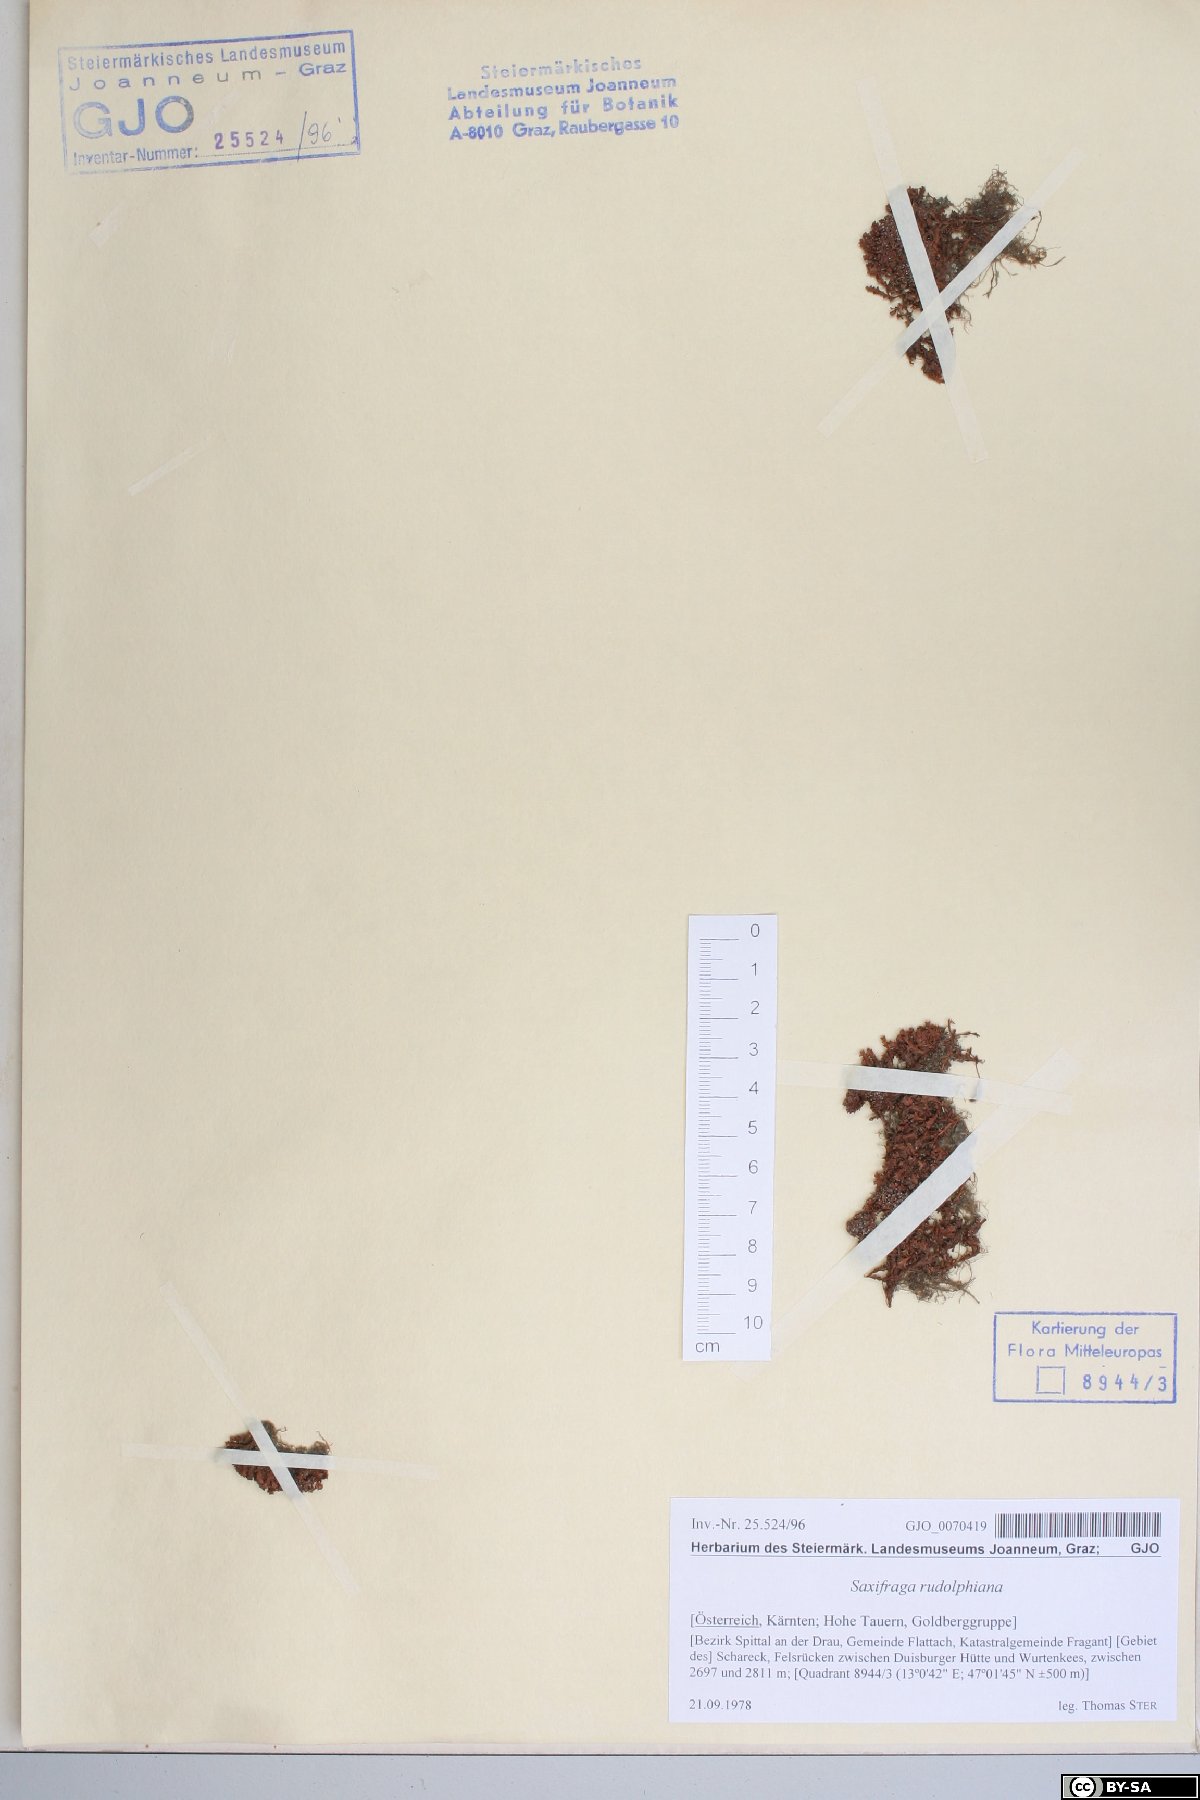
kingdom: Plantae
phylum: Tracheophyta
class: Magnoliopsida
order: Saxifragales
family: Saxifragaceae
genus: Saxifraga
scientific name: Saxifraga oppositifolia
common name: Purple saxifrage
